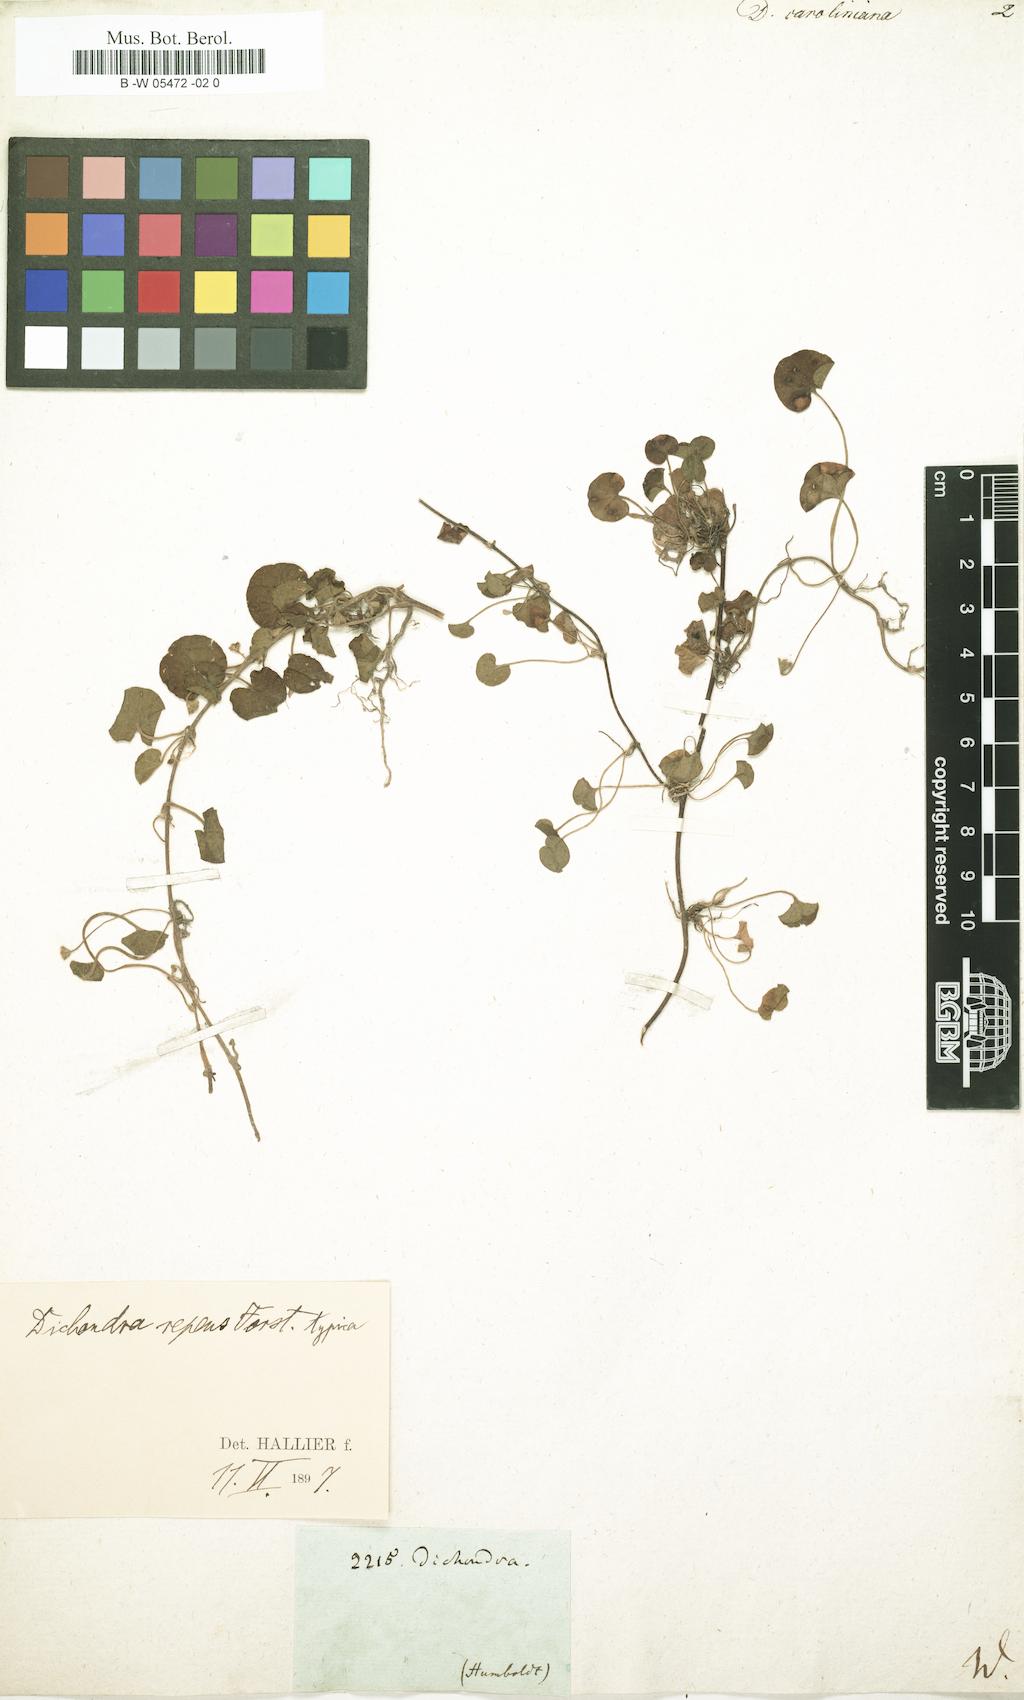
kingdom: Plantae
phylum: Tracheophyta
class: Magnoliopsida
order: Solanales
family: Convolvulaceae
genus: Dichondra
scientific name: Dichondra carolinensis
